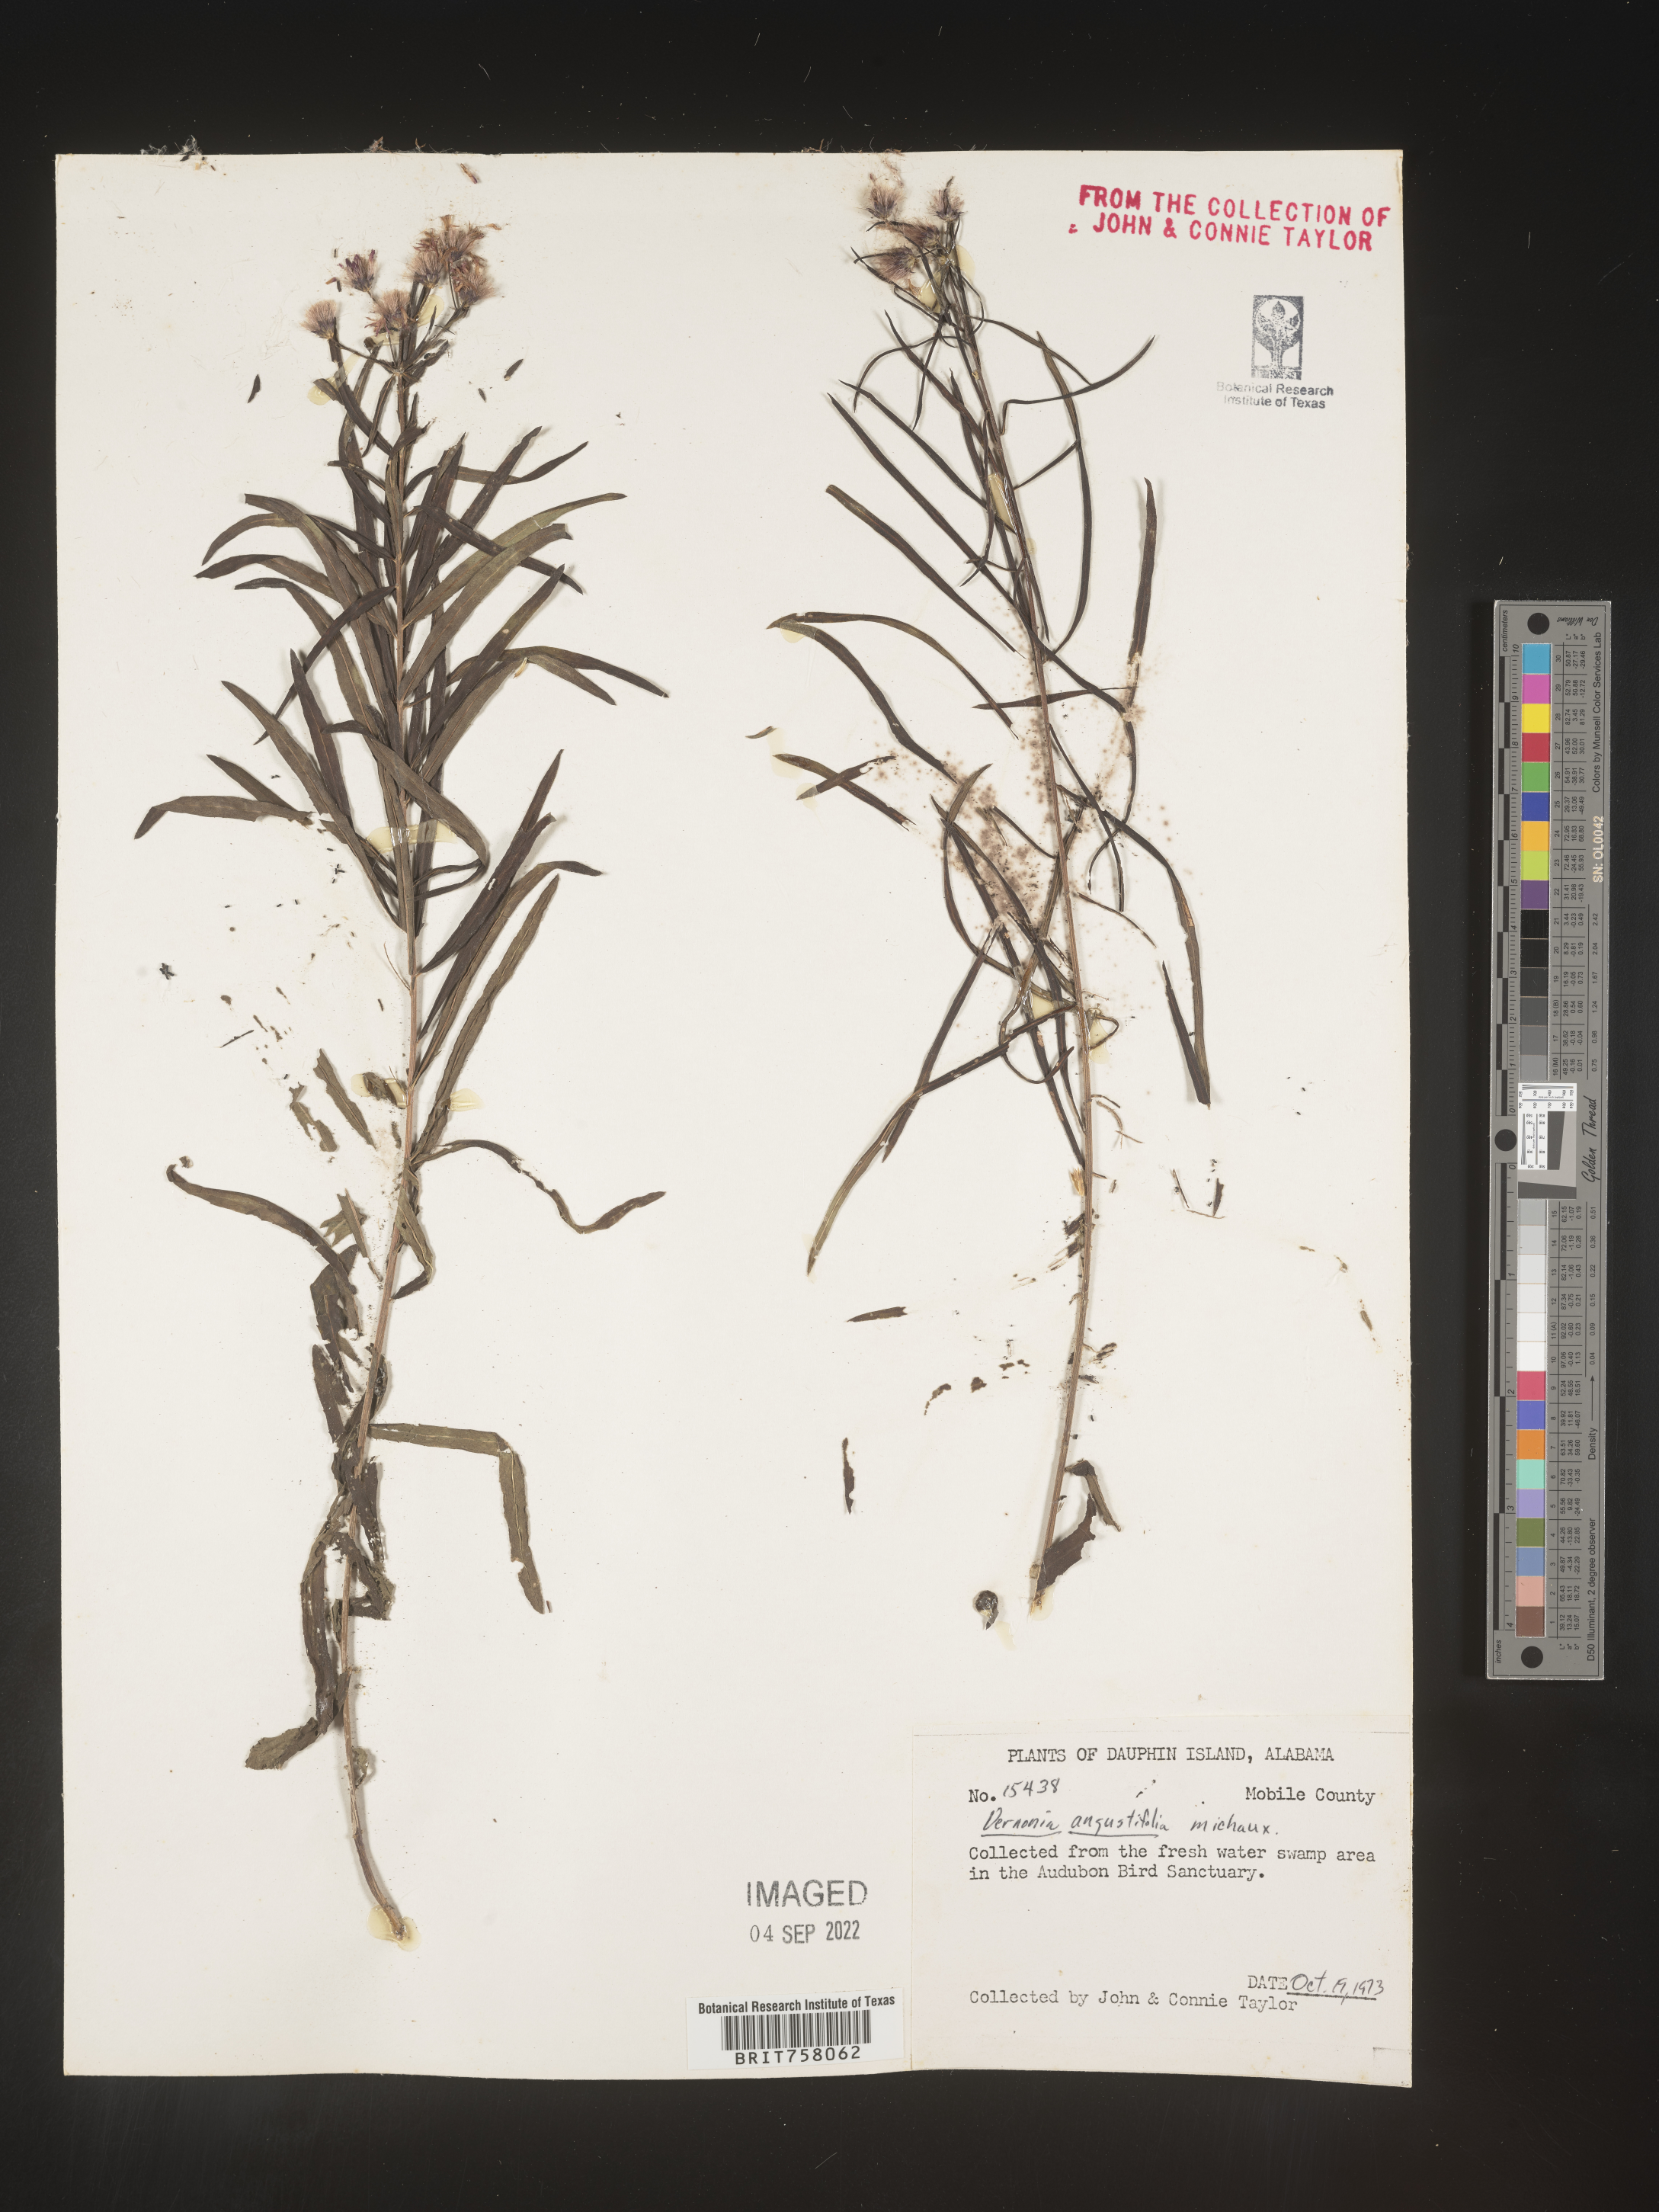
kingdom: Plantae
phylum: Tracheophyta
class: Magnoliopsida
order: Asterales
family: Asteraceae
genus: Vernonia
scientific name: Vernonia angustifolia
